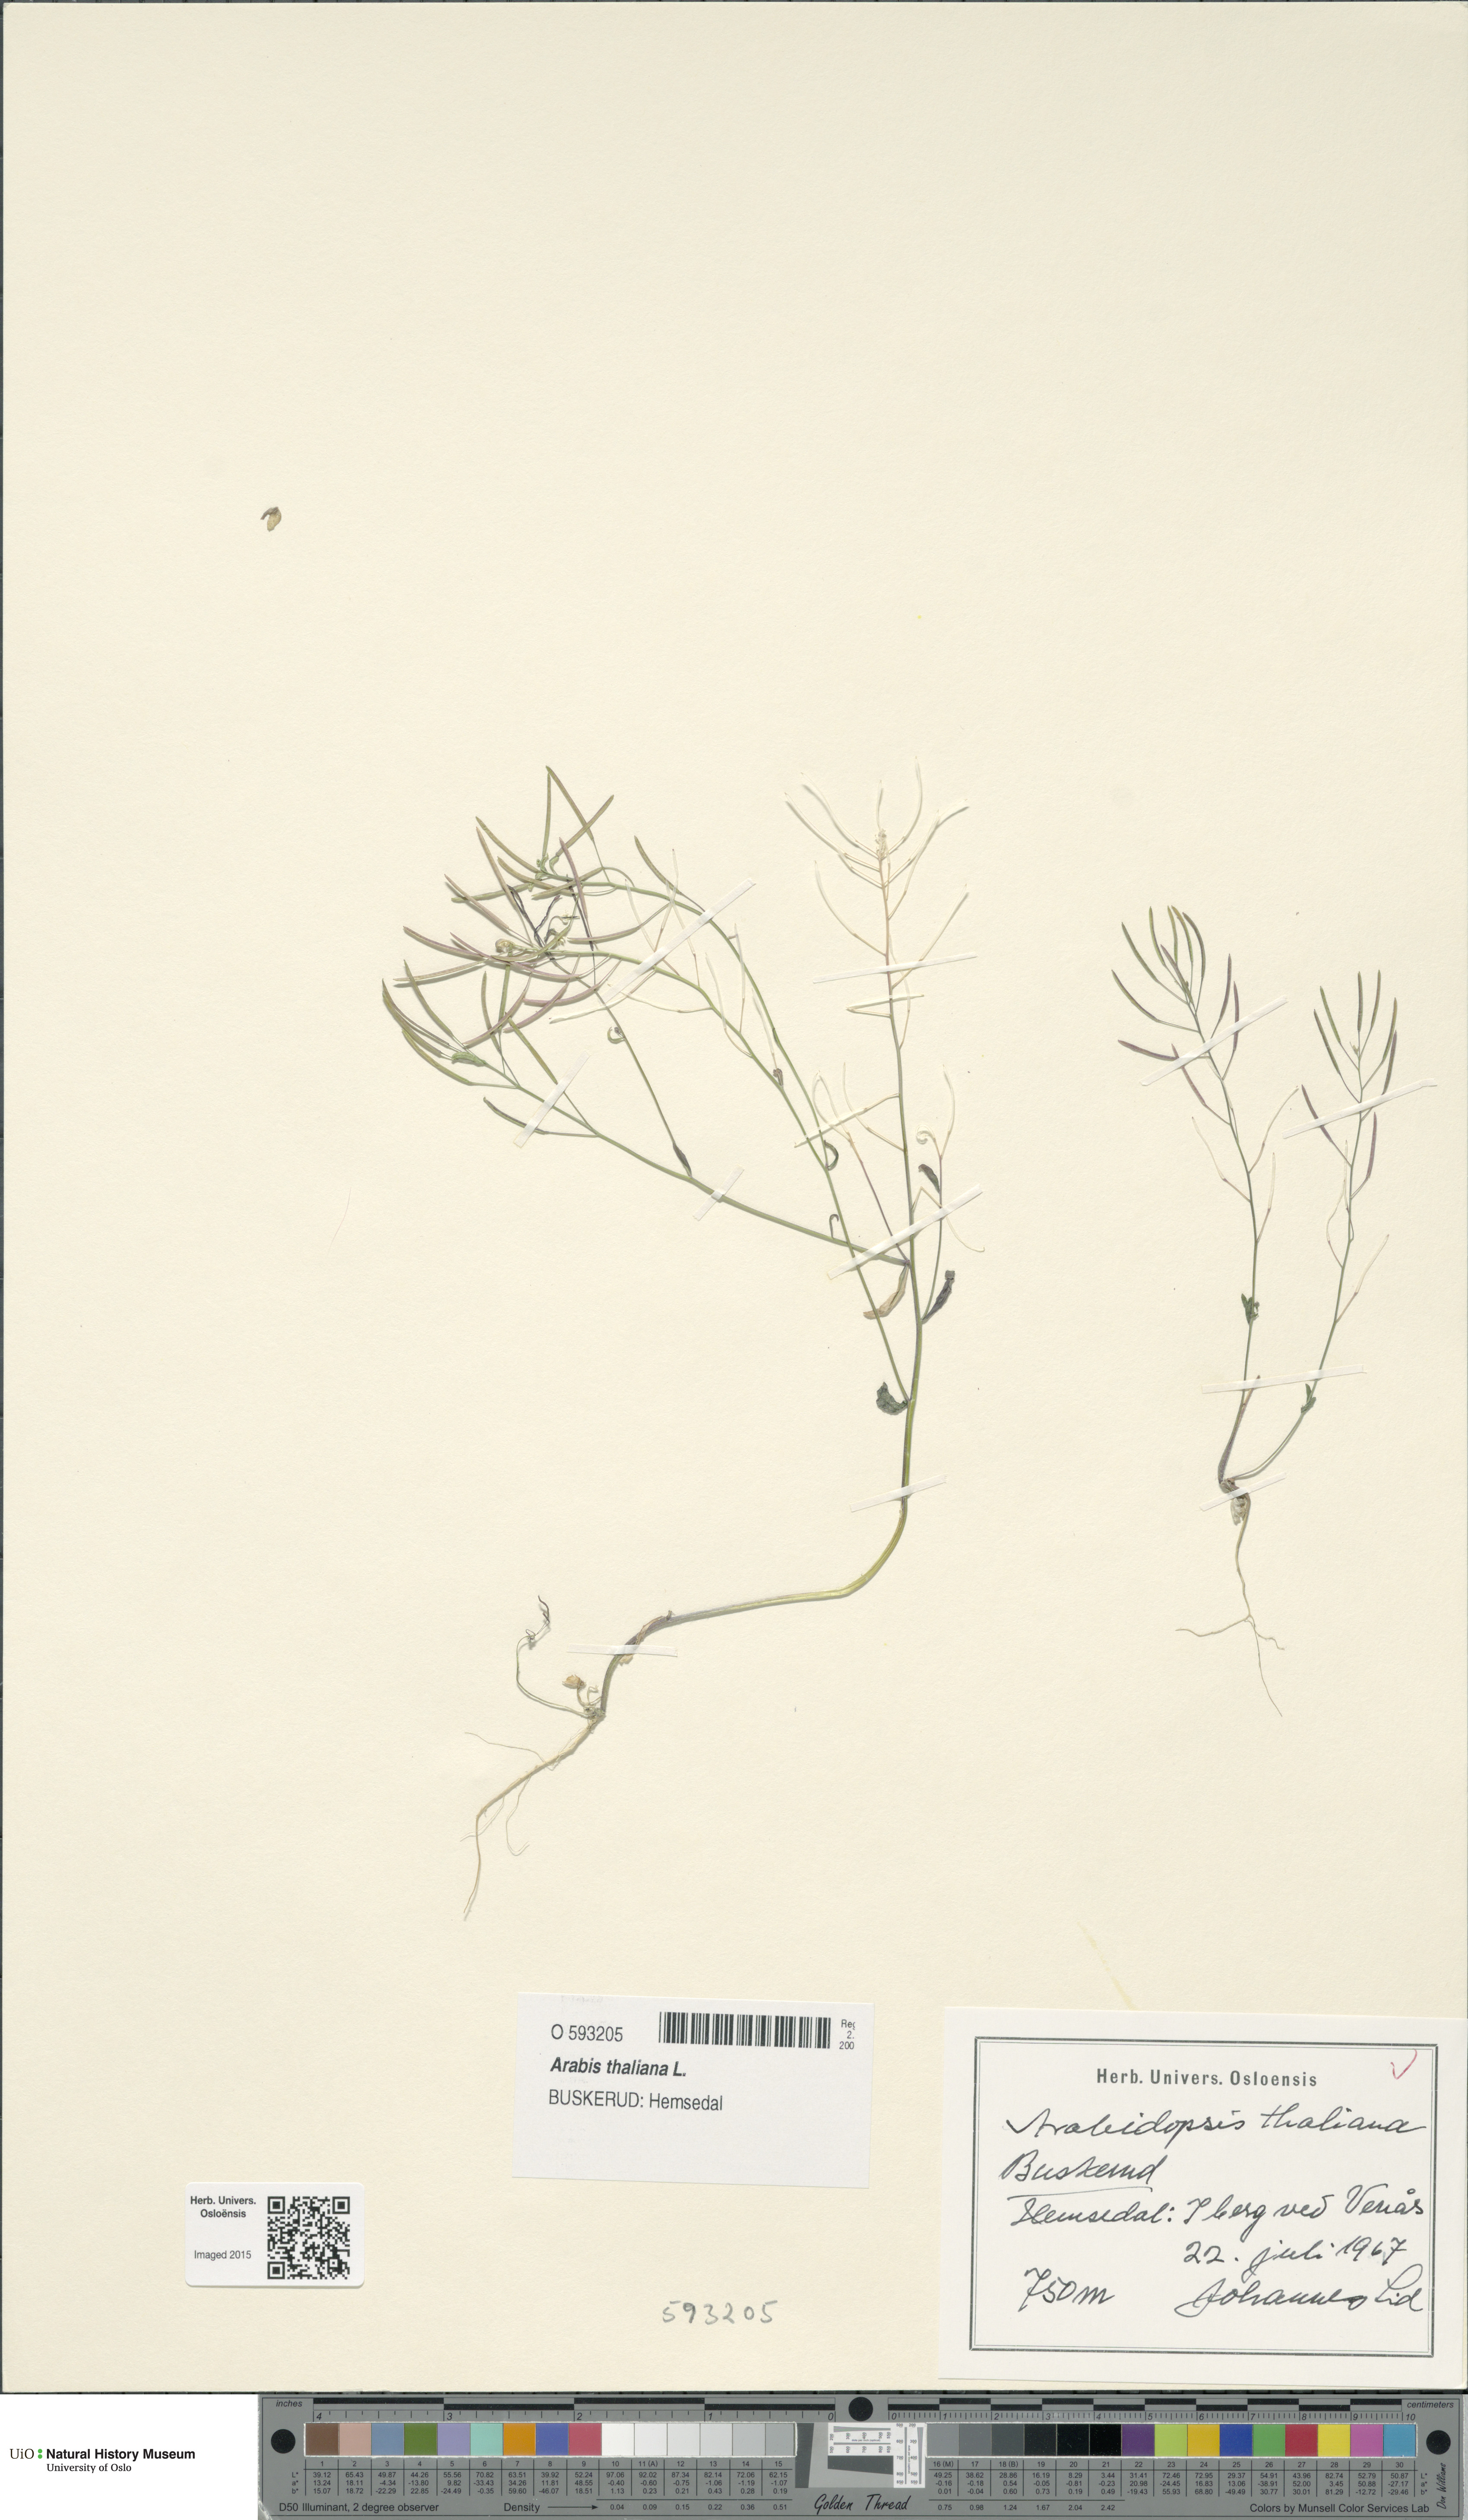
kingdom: Plantae
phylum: Tracheophyta
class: Magnoliopsida
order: Brassicales
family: Brassicaceae
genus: Arabidopsis
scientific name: Arabidopsis thaliana
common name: Thale cress
